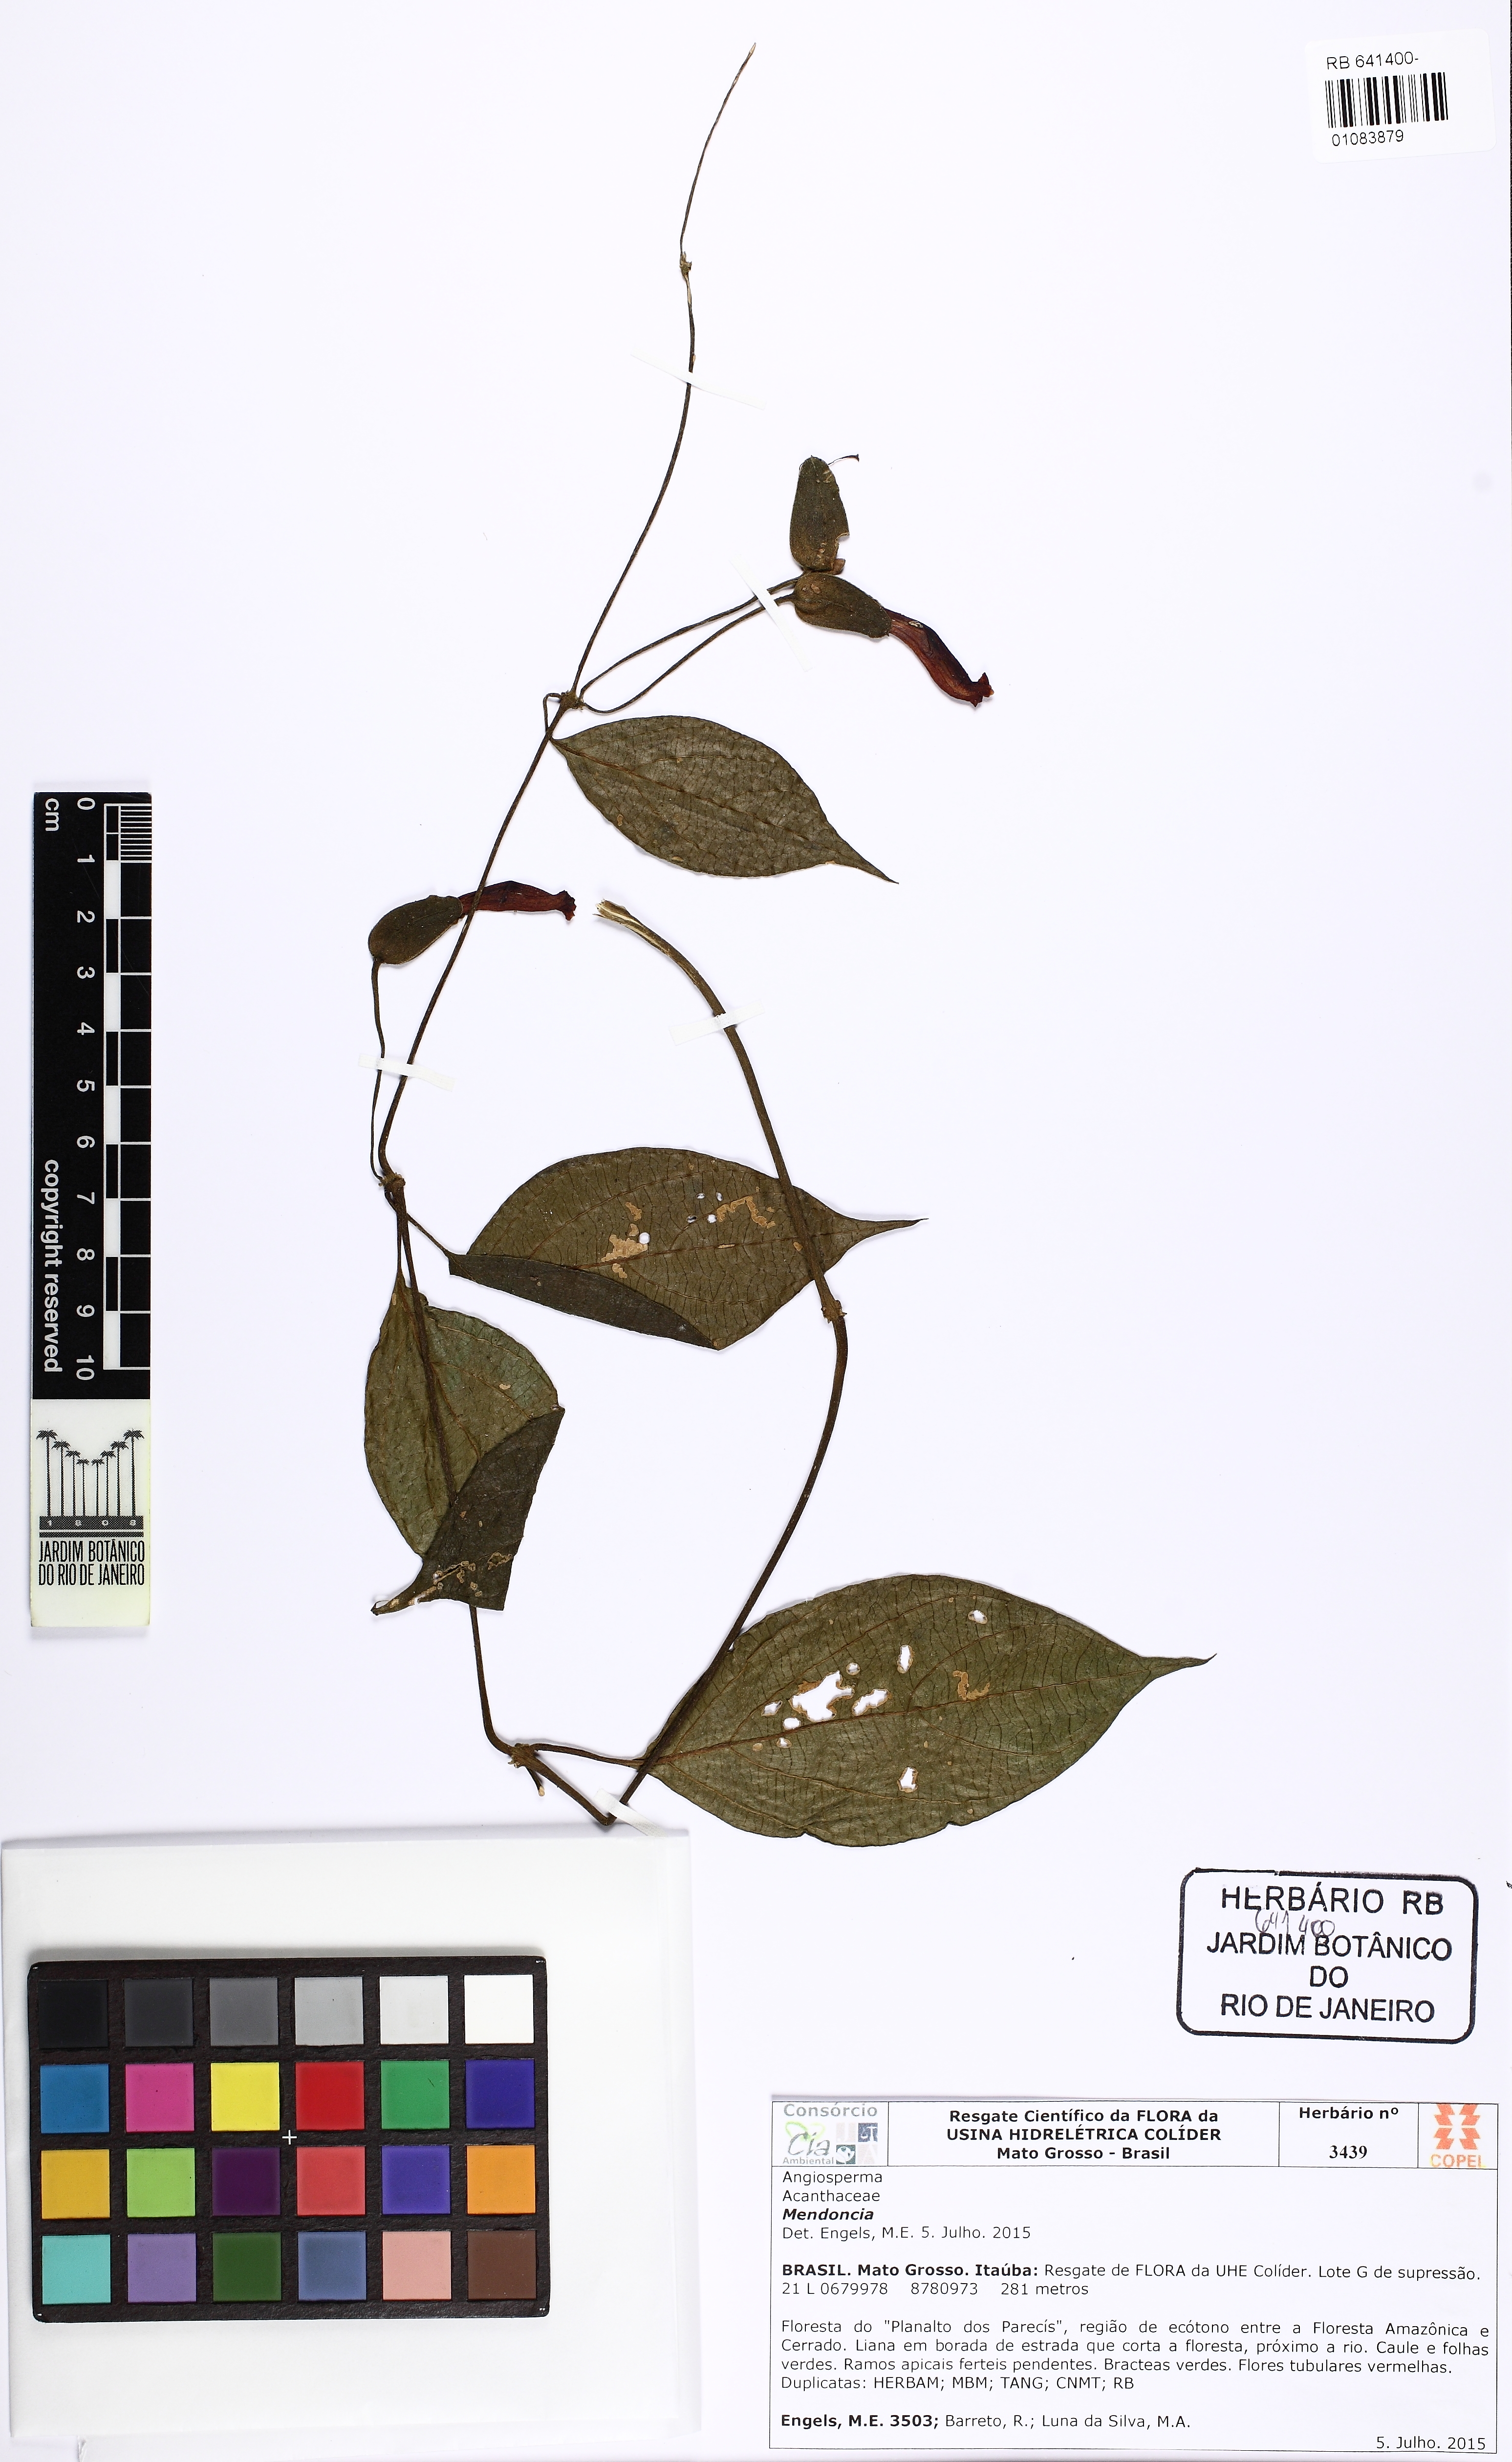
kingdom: Plantae
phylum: Tracheophyta
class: Magnoliopsida
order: Lamiales
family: Acanthaceae
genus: Mendoncia
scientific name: Mendoncia sprucei
